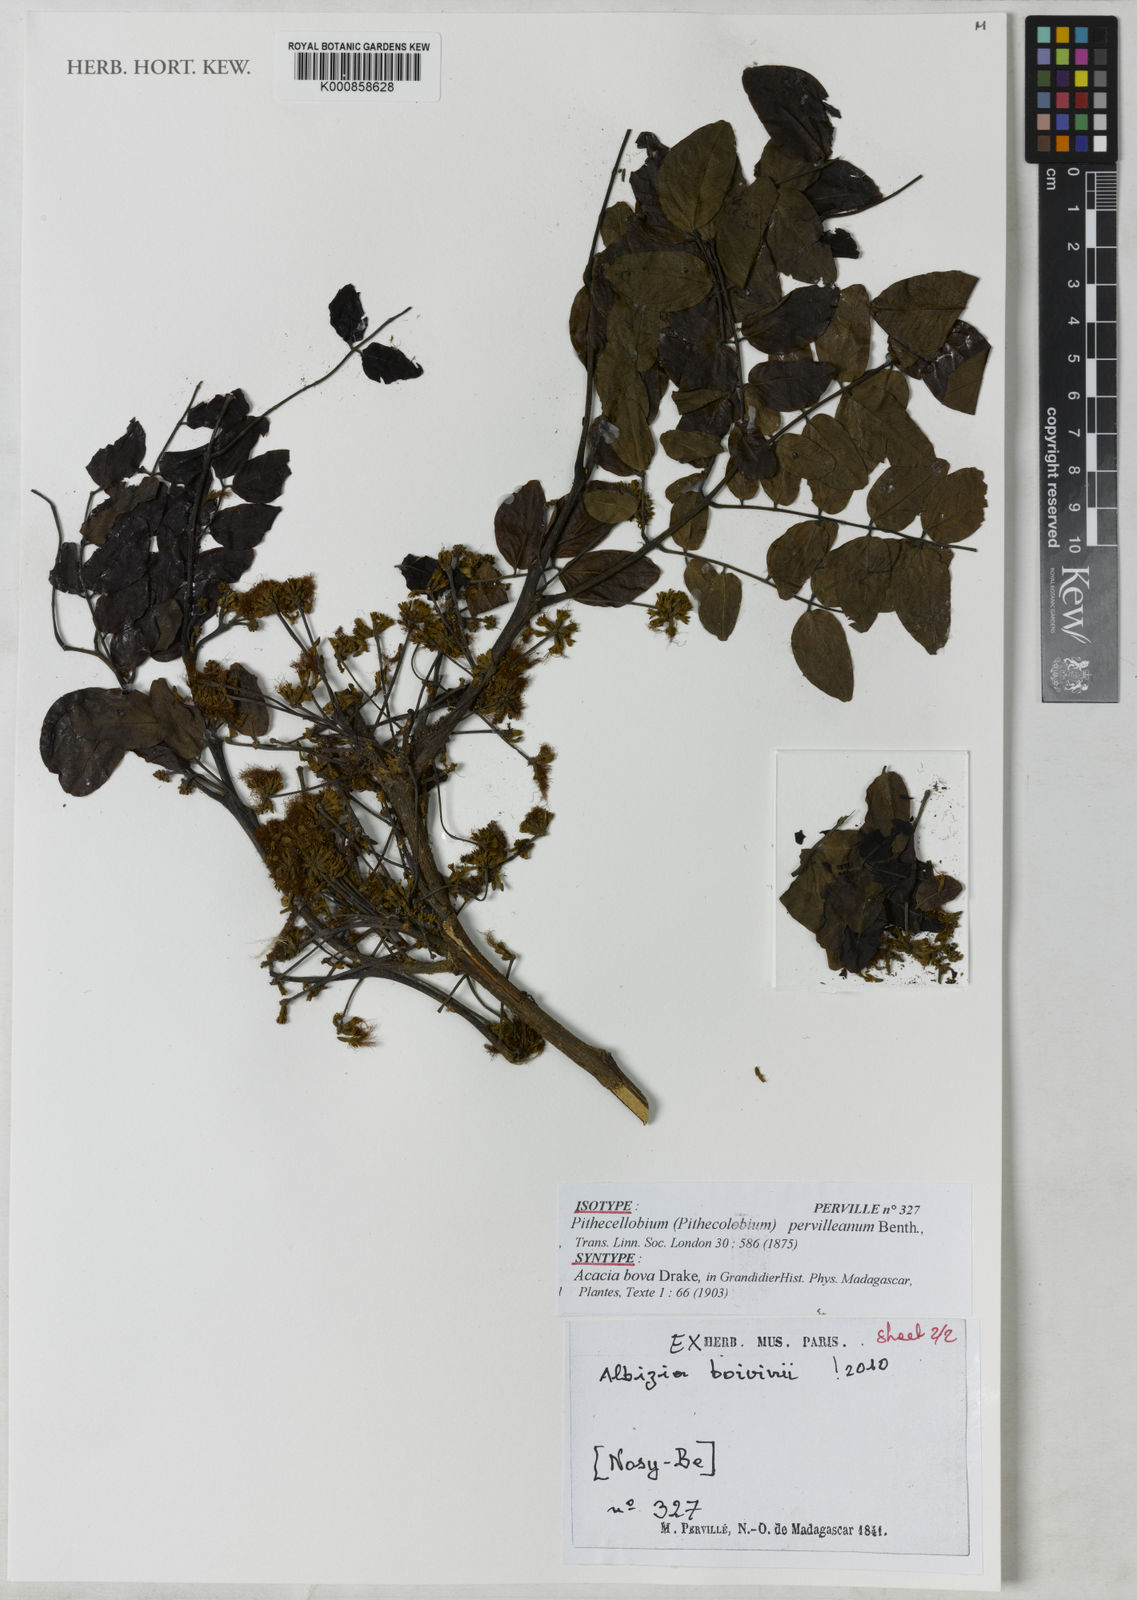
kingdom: Plantae
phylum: Tracheophyta
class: Magnoliopsida
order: Fabales
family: Fabaceae
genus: Albizia
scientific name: Albizia boivinii
